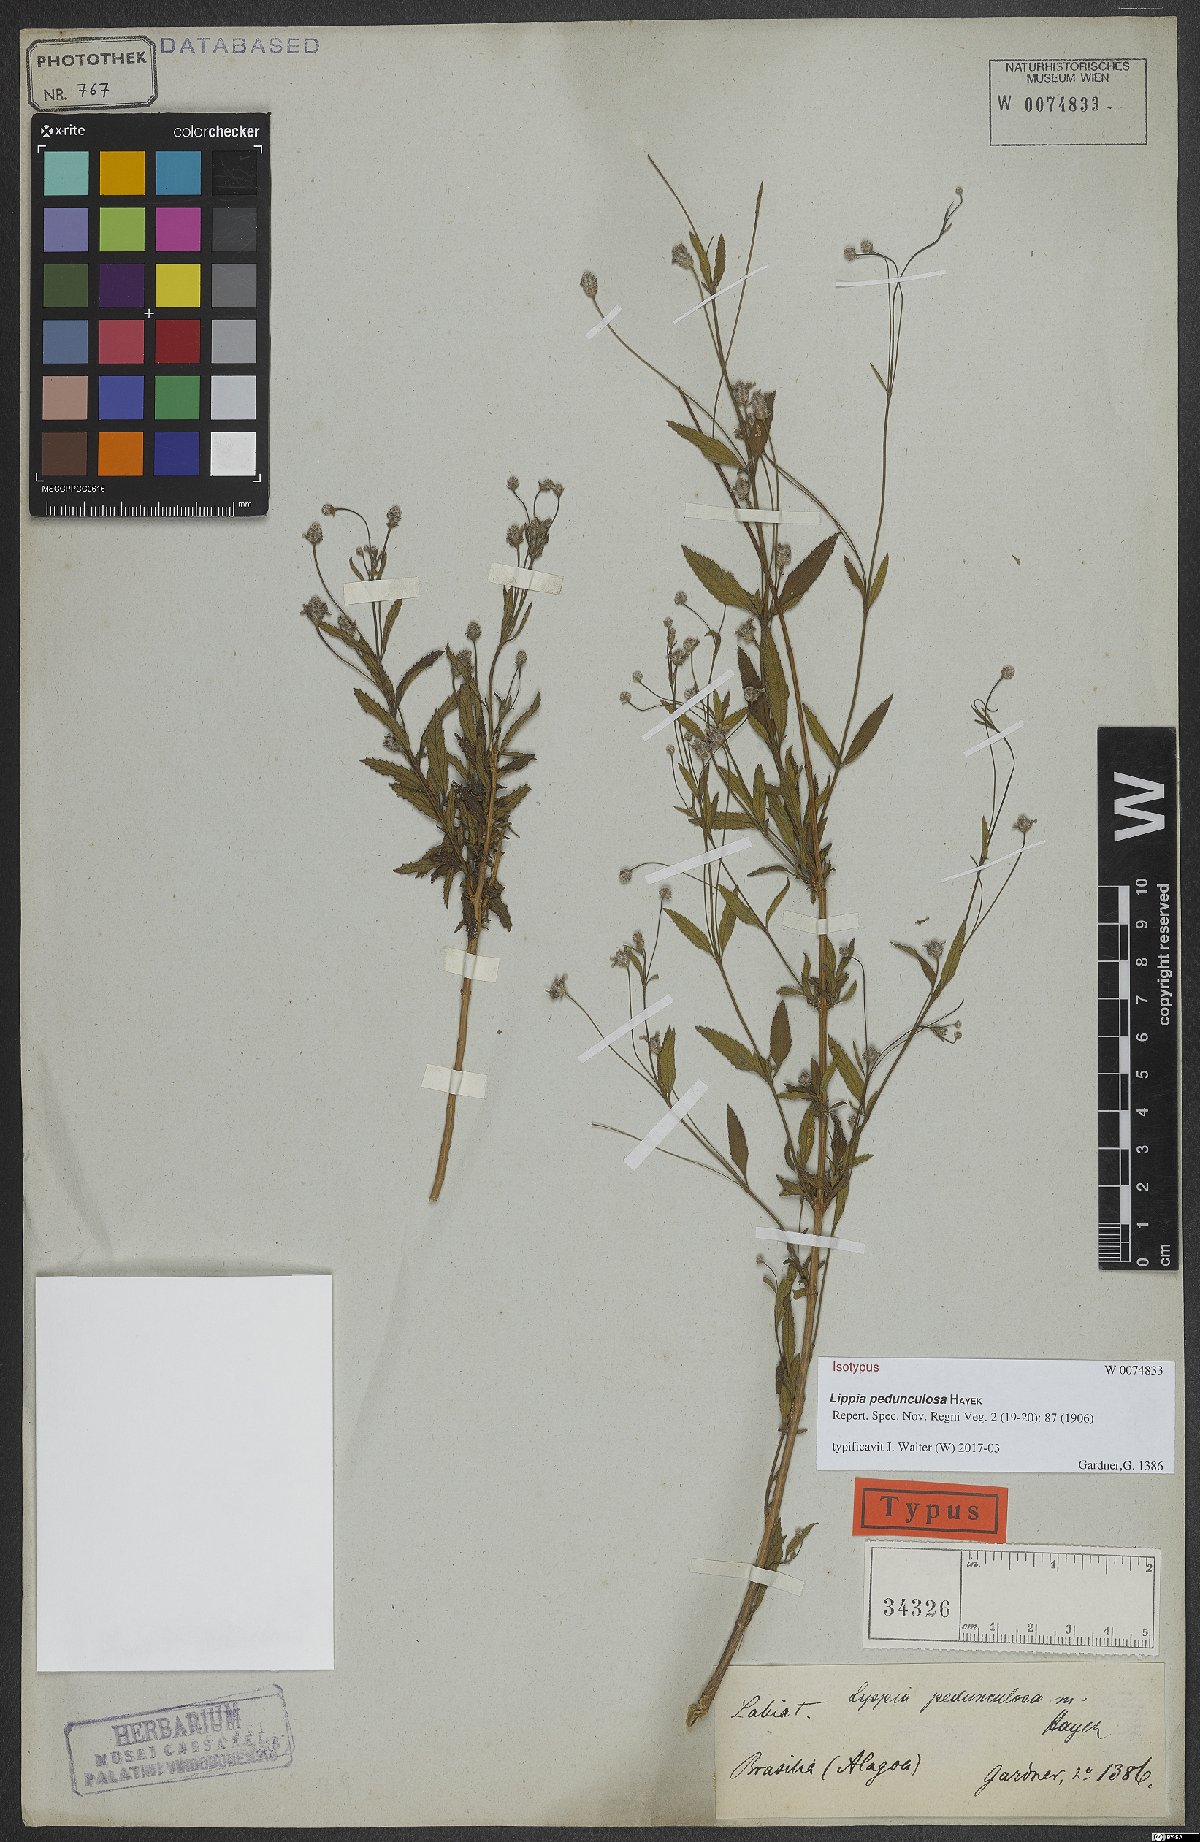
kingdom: Plantae
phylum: Tracheophyta
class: Magnoliopsida
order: Lamiales
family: Verbenaceae
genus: Lippia
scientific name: Lippia pedunculosa
